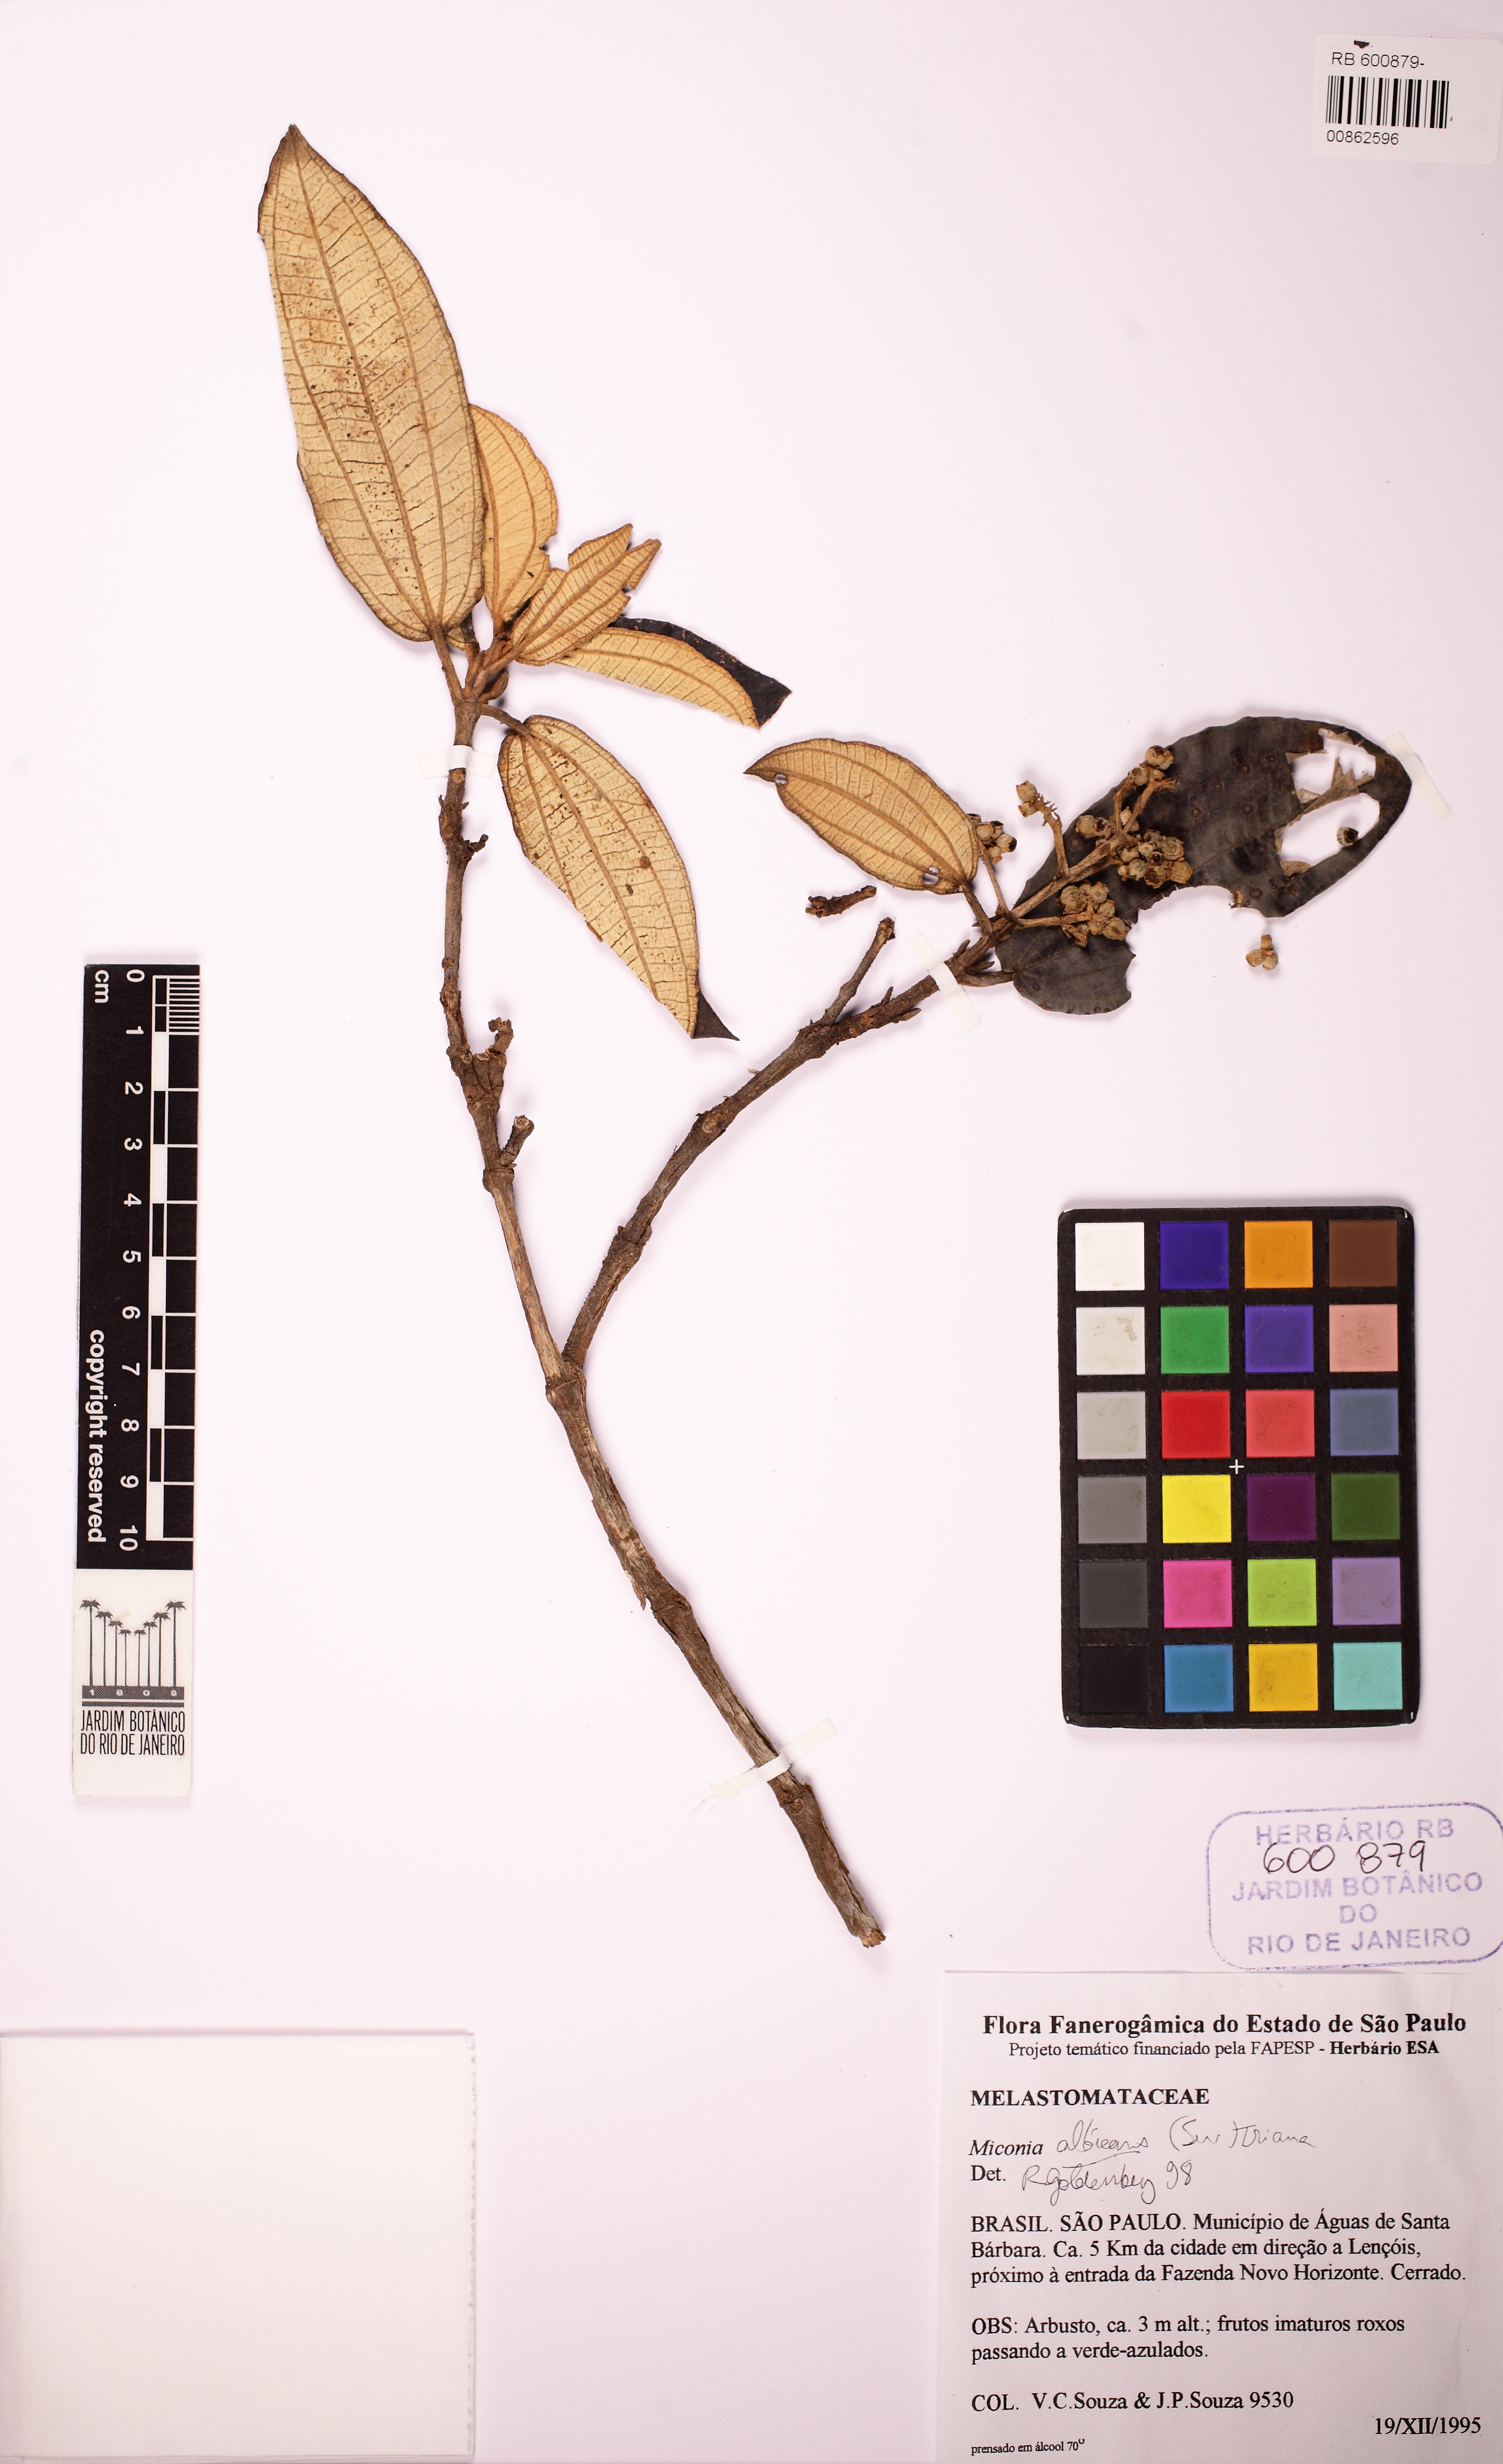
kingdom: Plantae
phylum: Tracheophyta
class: Magnoliopsida
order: Myrtales
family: Melastomataceae
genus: Miconia
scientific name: Miconia albicans
